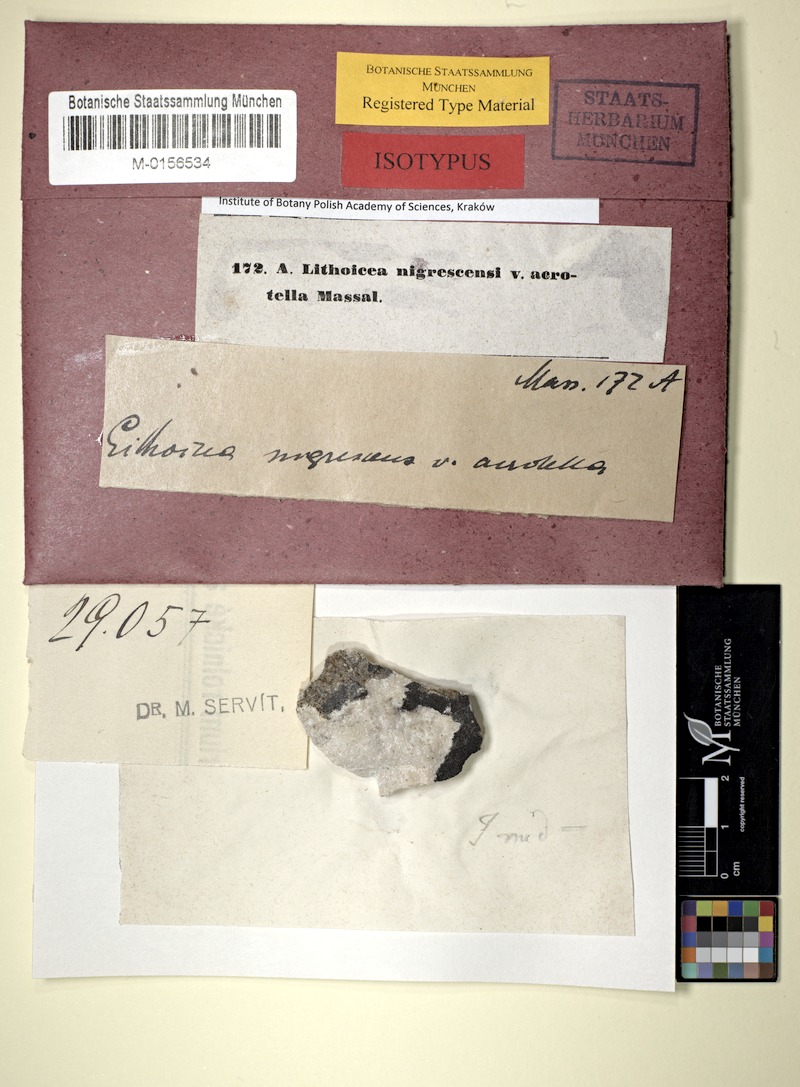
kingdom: Fungi
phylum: Ascomycota
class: Eurotiomycetes
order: Verrucariales
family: Verrucariaceae
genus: Verrucaria
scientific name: Verrucaria nigrescens
